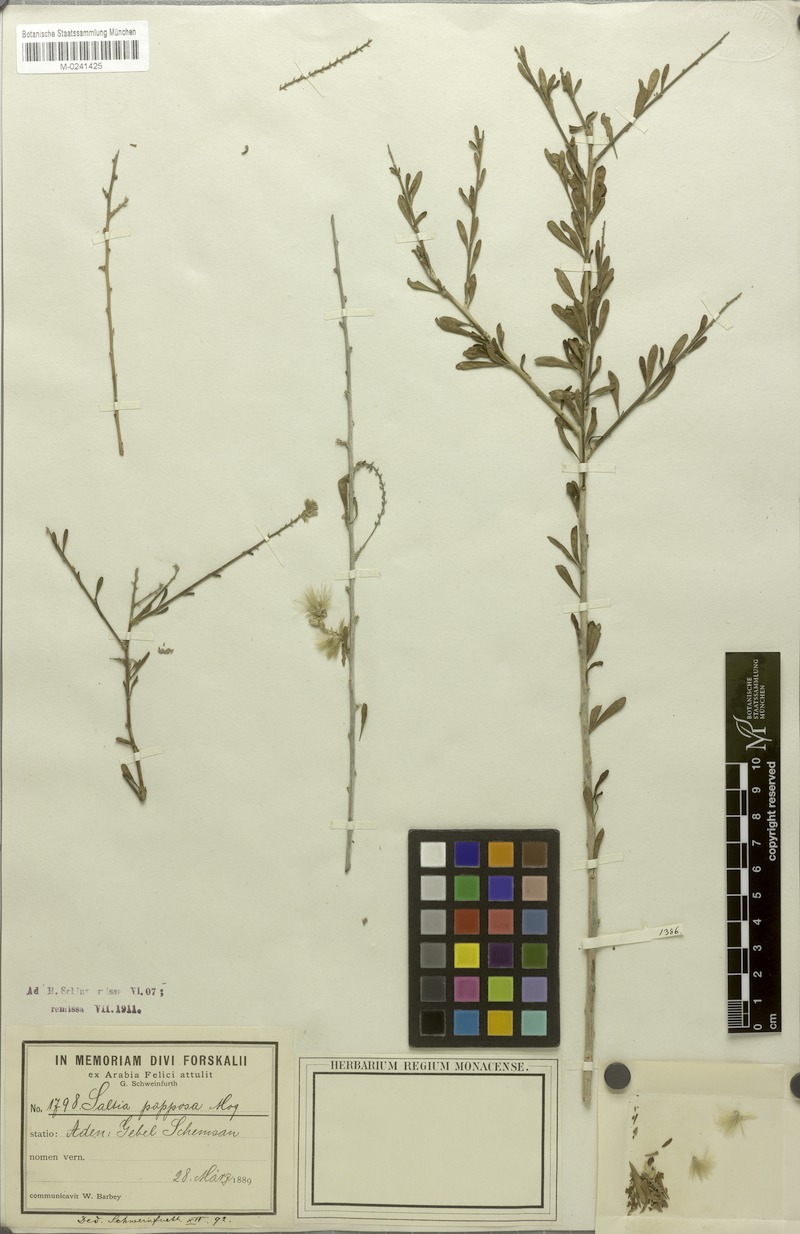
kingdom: Plantae
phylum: Tracheophyta
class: Magnoliopsida
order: Caryophyllales
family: Amaranthaceae
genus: Saltia
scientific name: Saltia papposa
